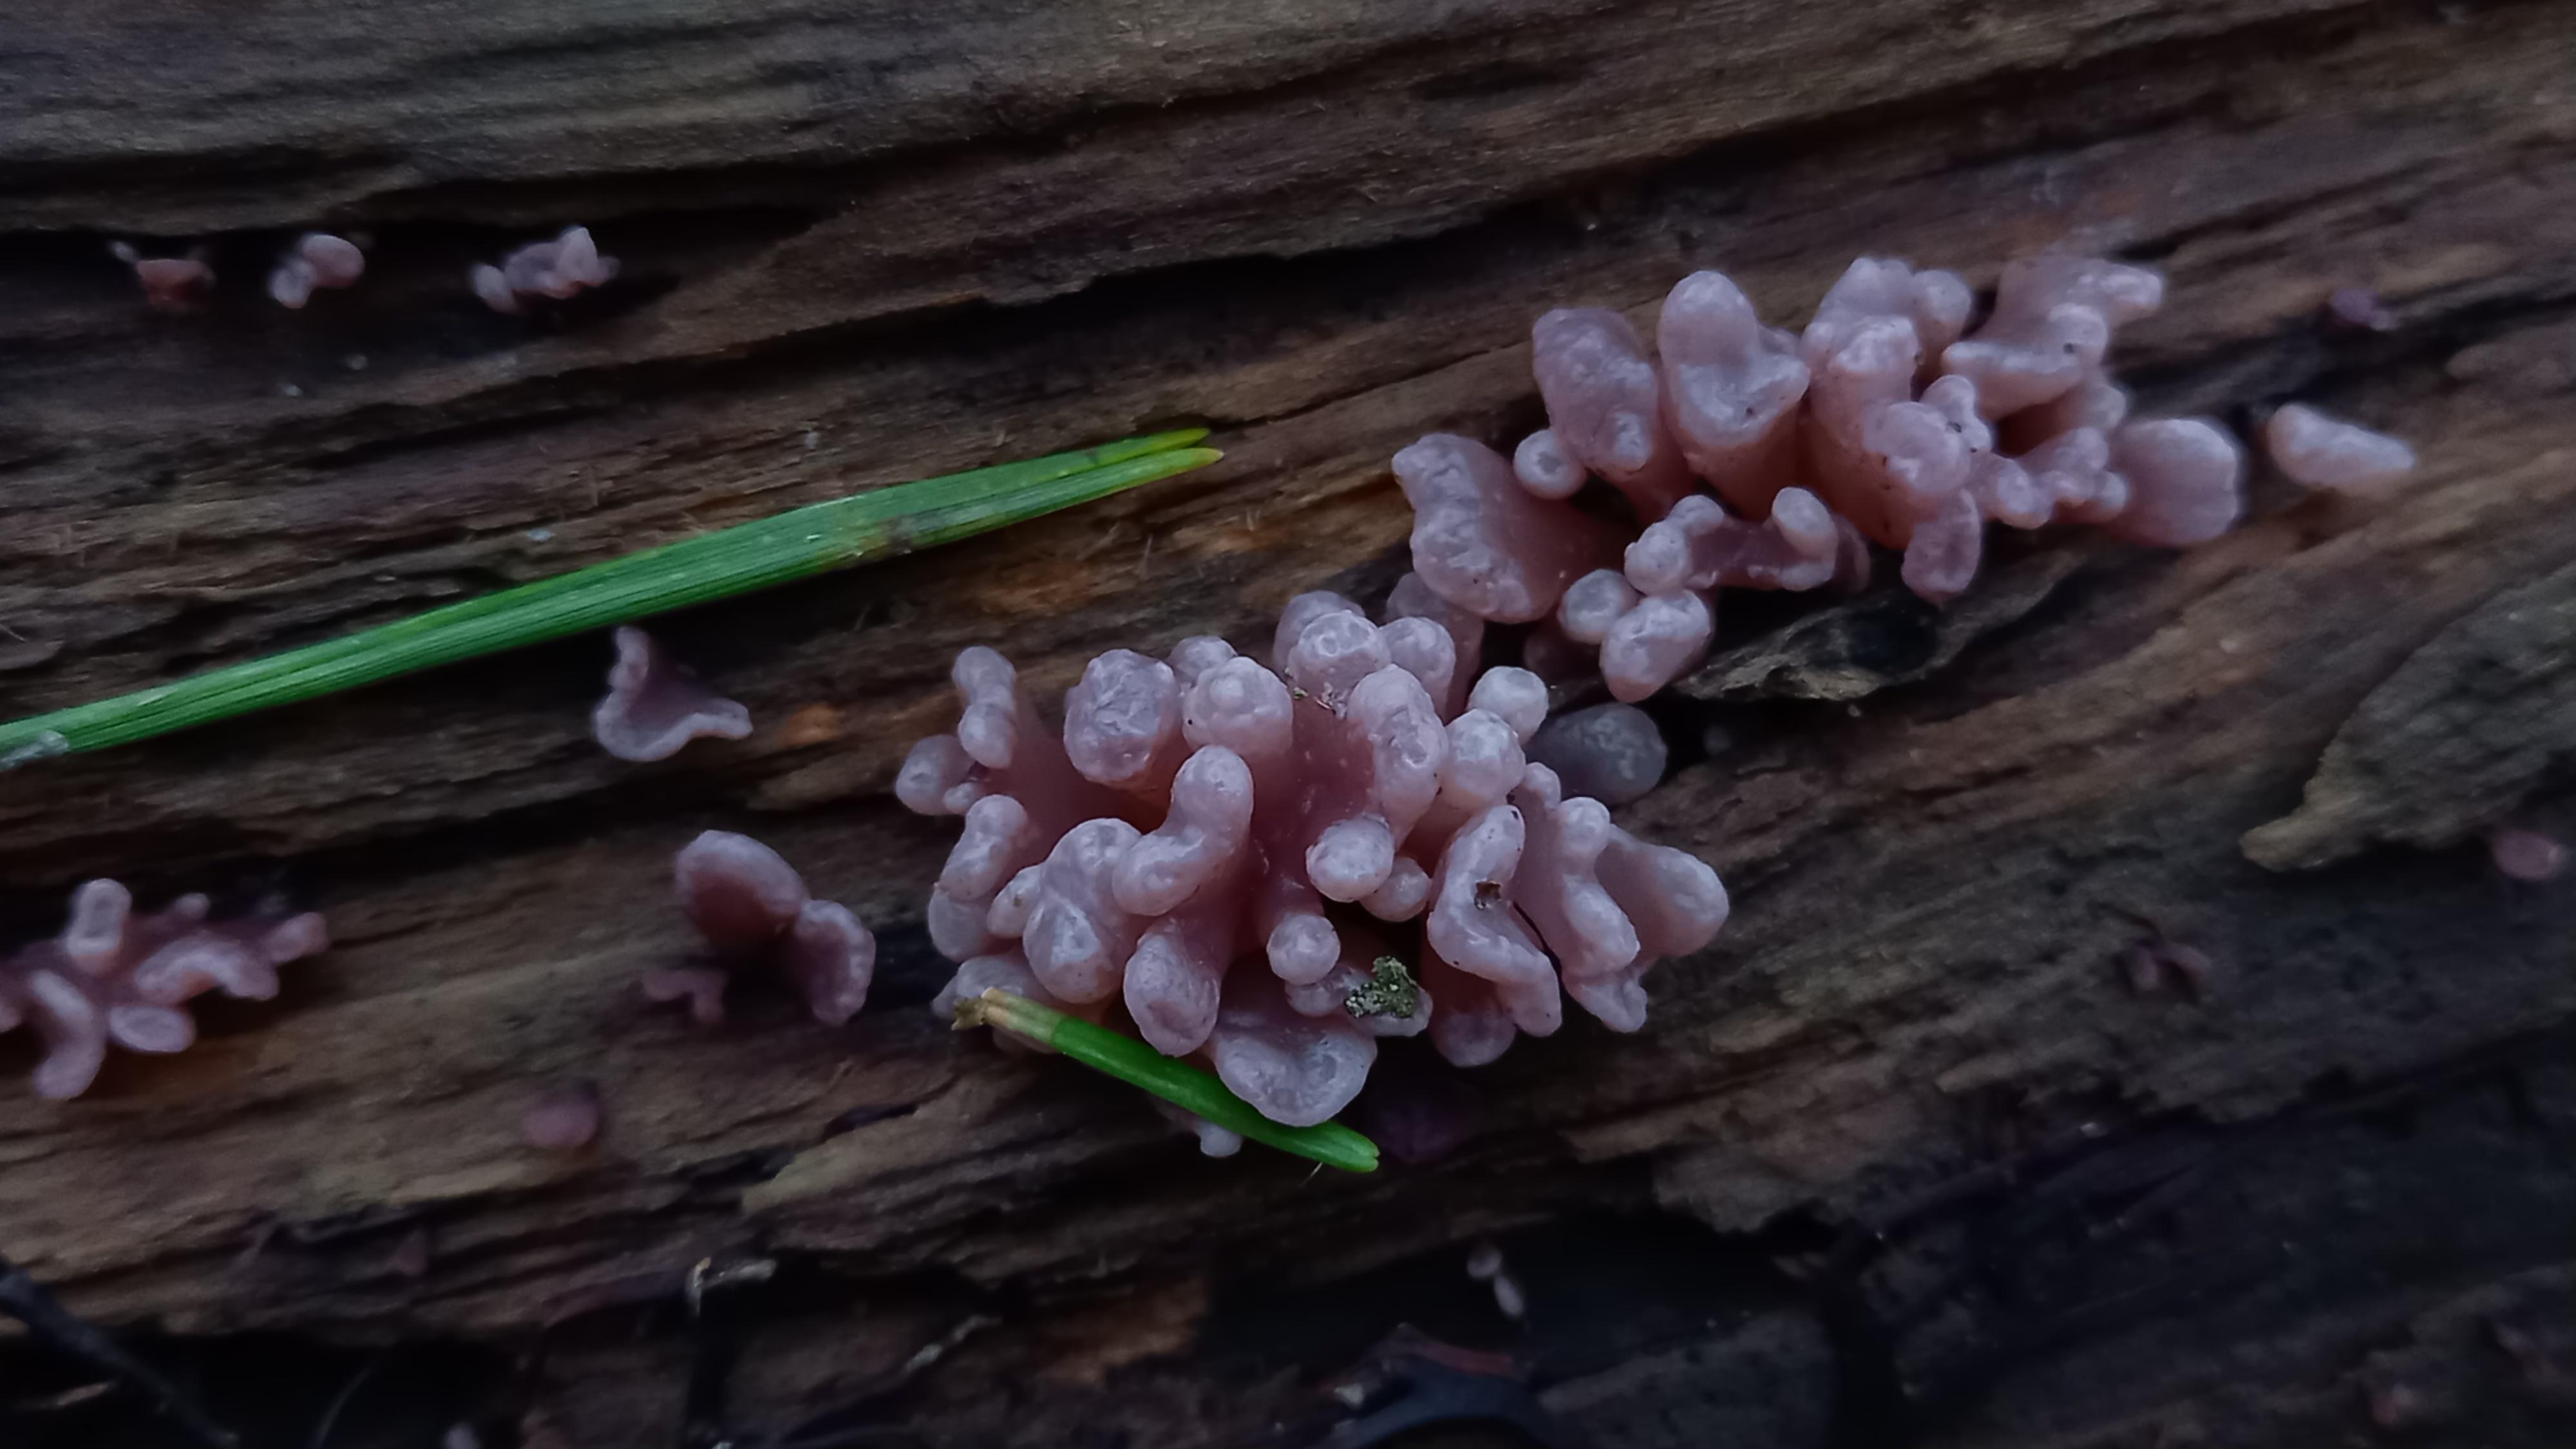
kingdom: Fungi
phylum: Ascomycota
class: Leotiomycetes
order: Helotiales
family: Gelatinodiscaceae
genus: Ascocoryne
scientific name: Ascocoryne sarcoides
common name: rødlilla sejskive
